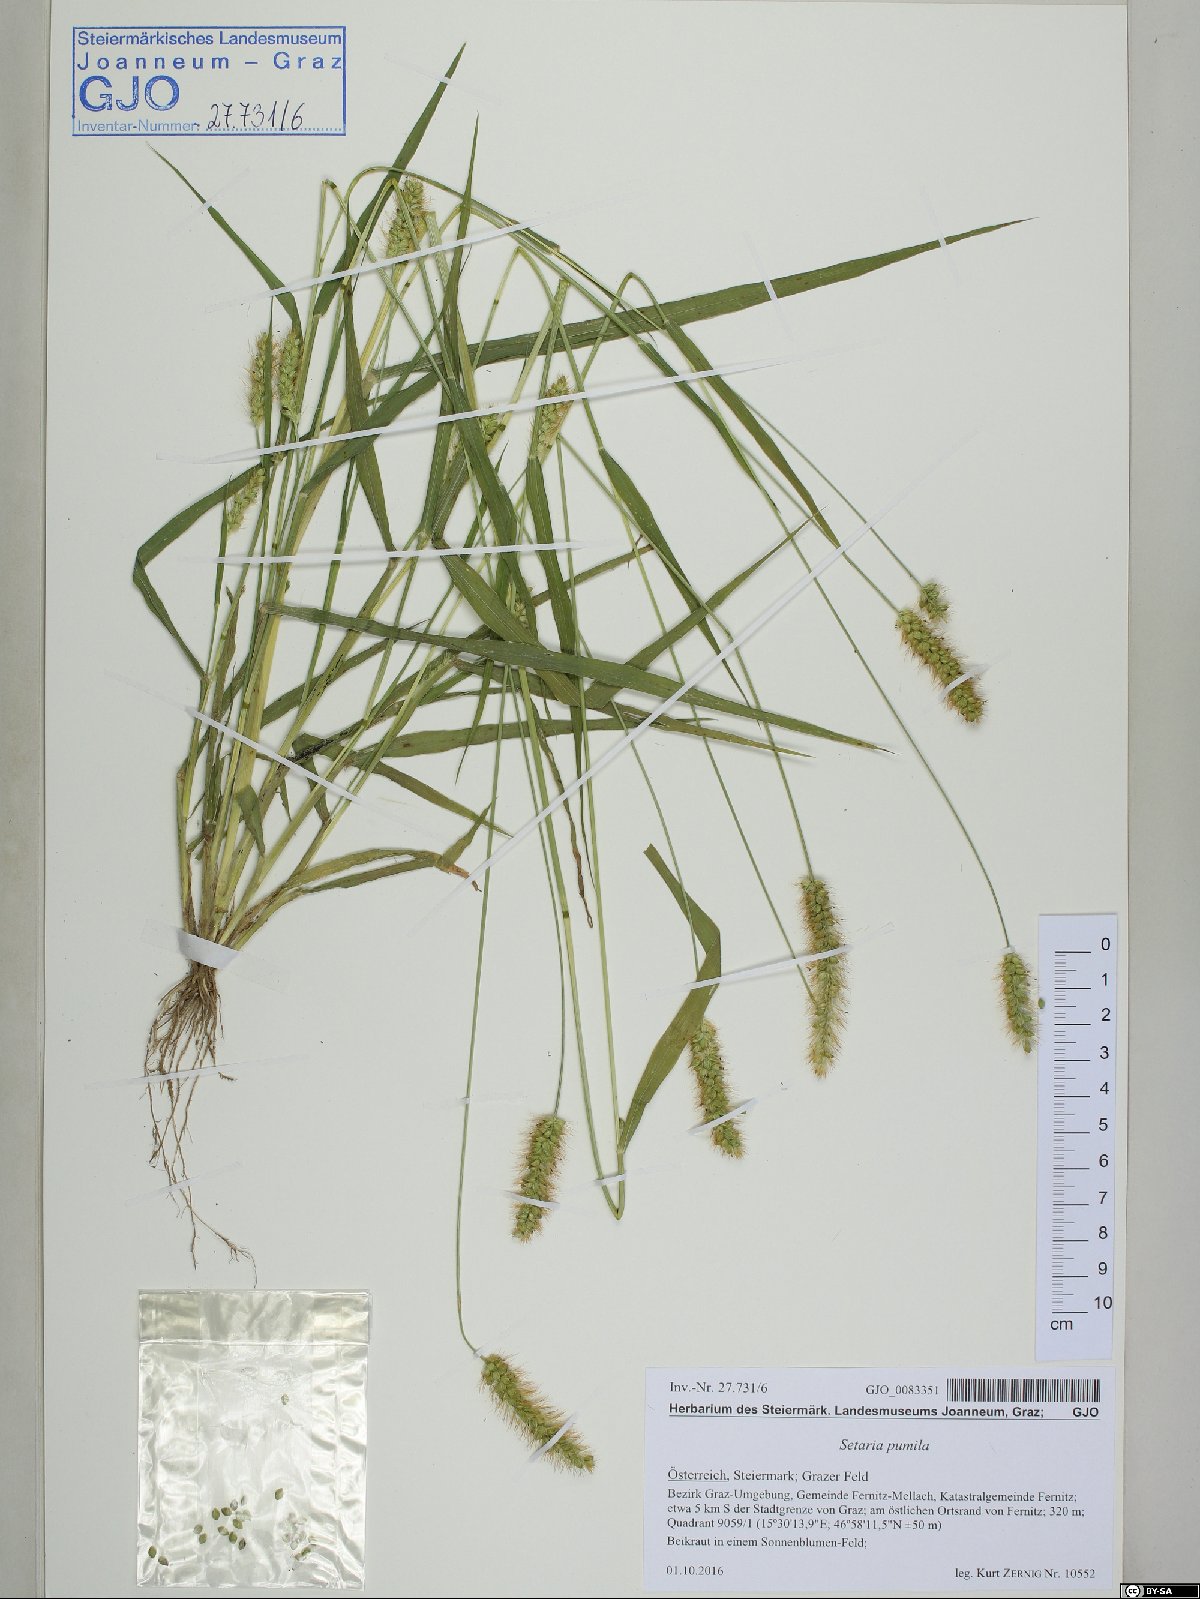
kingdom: Plantae
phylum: Tracheophyta
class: Liliopsida
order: Poales
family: Poaceae
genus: Setaria
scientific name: Setaria pumila
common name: Yellow bristle-grass
